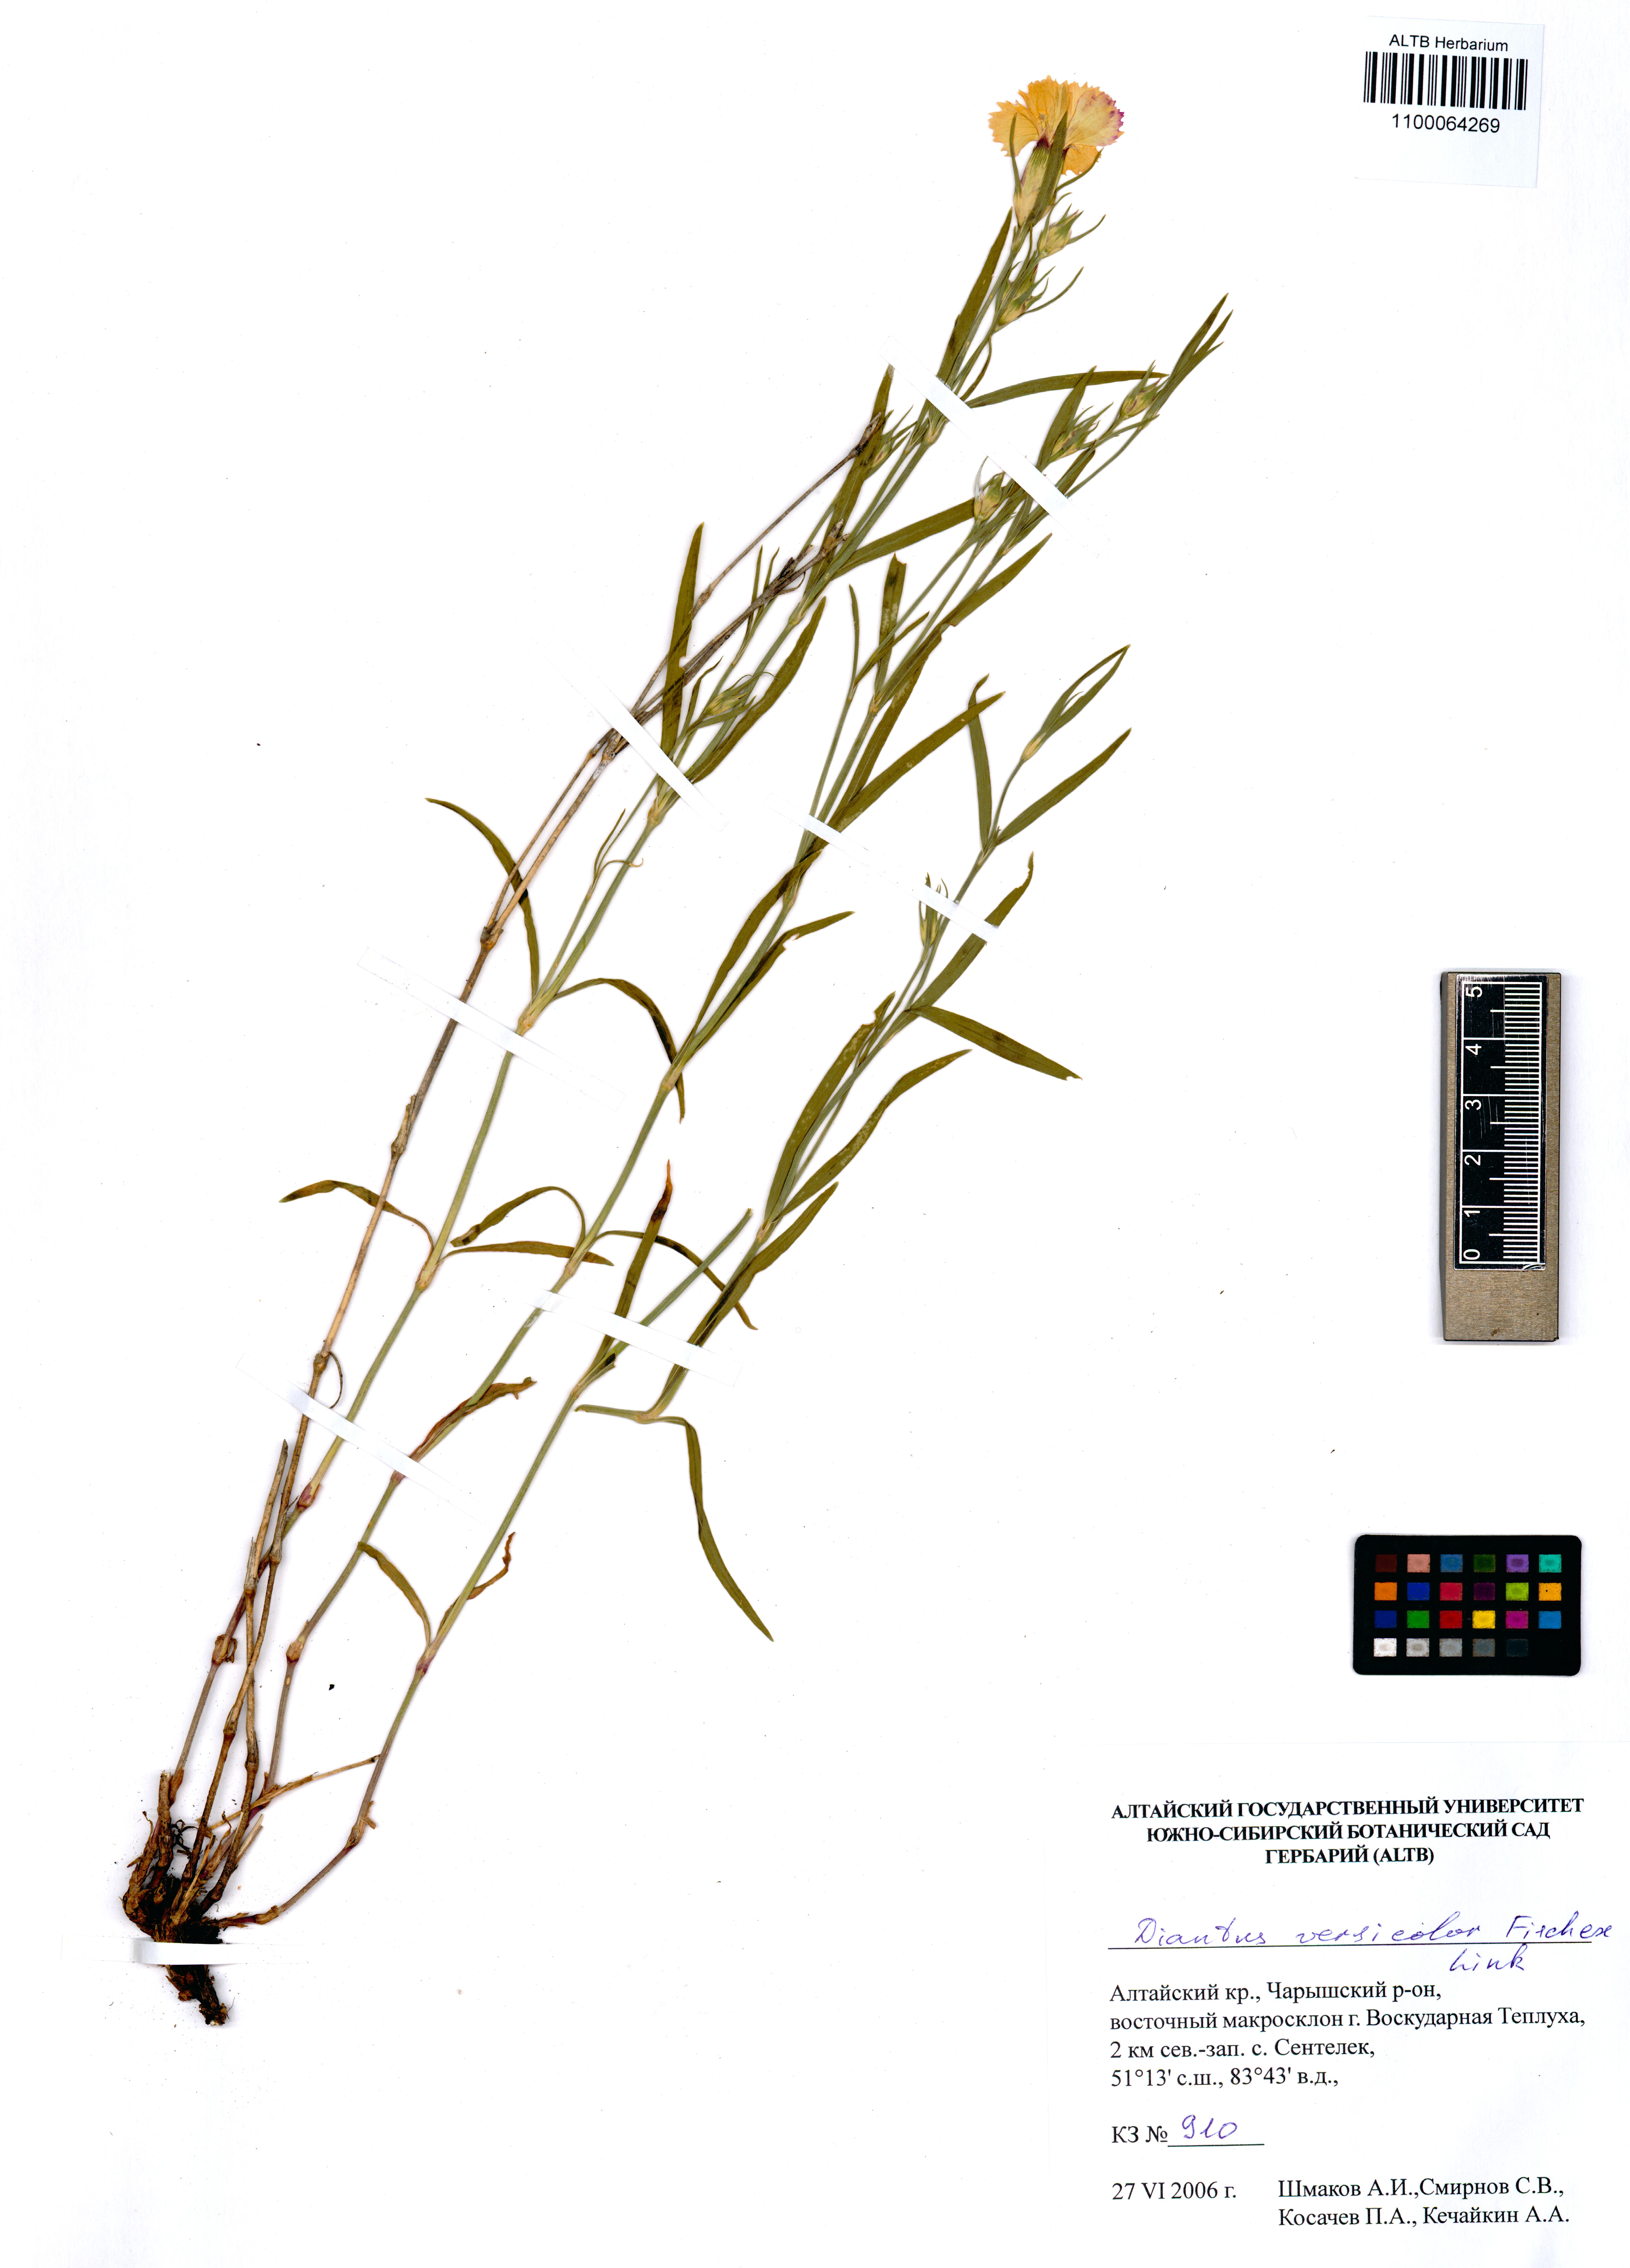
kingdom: Plantae
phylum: Tracheophyta
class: Magnoliopsida
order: Caryophyllales
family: Caryophyllaceae
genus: Dianthus
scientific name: Dianthus chinensis
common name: Rainbow pink
